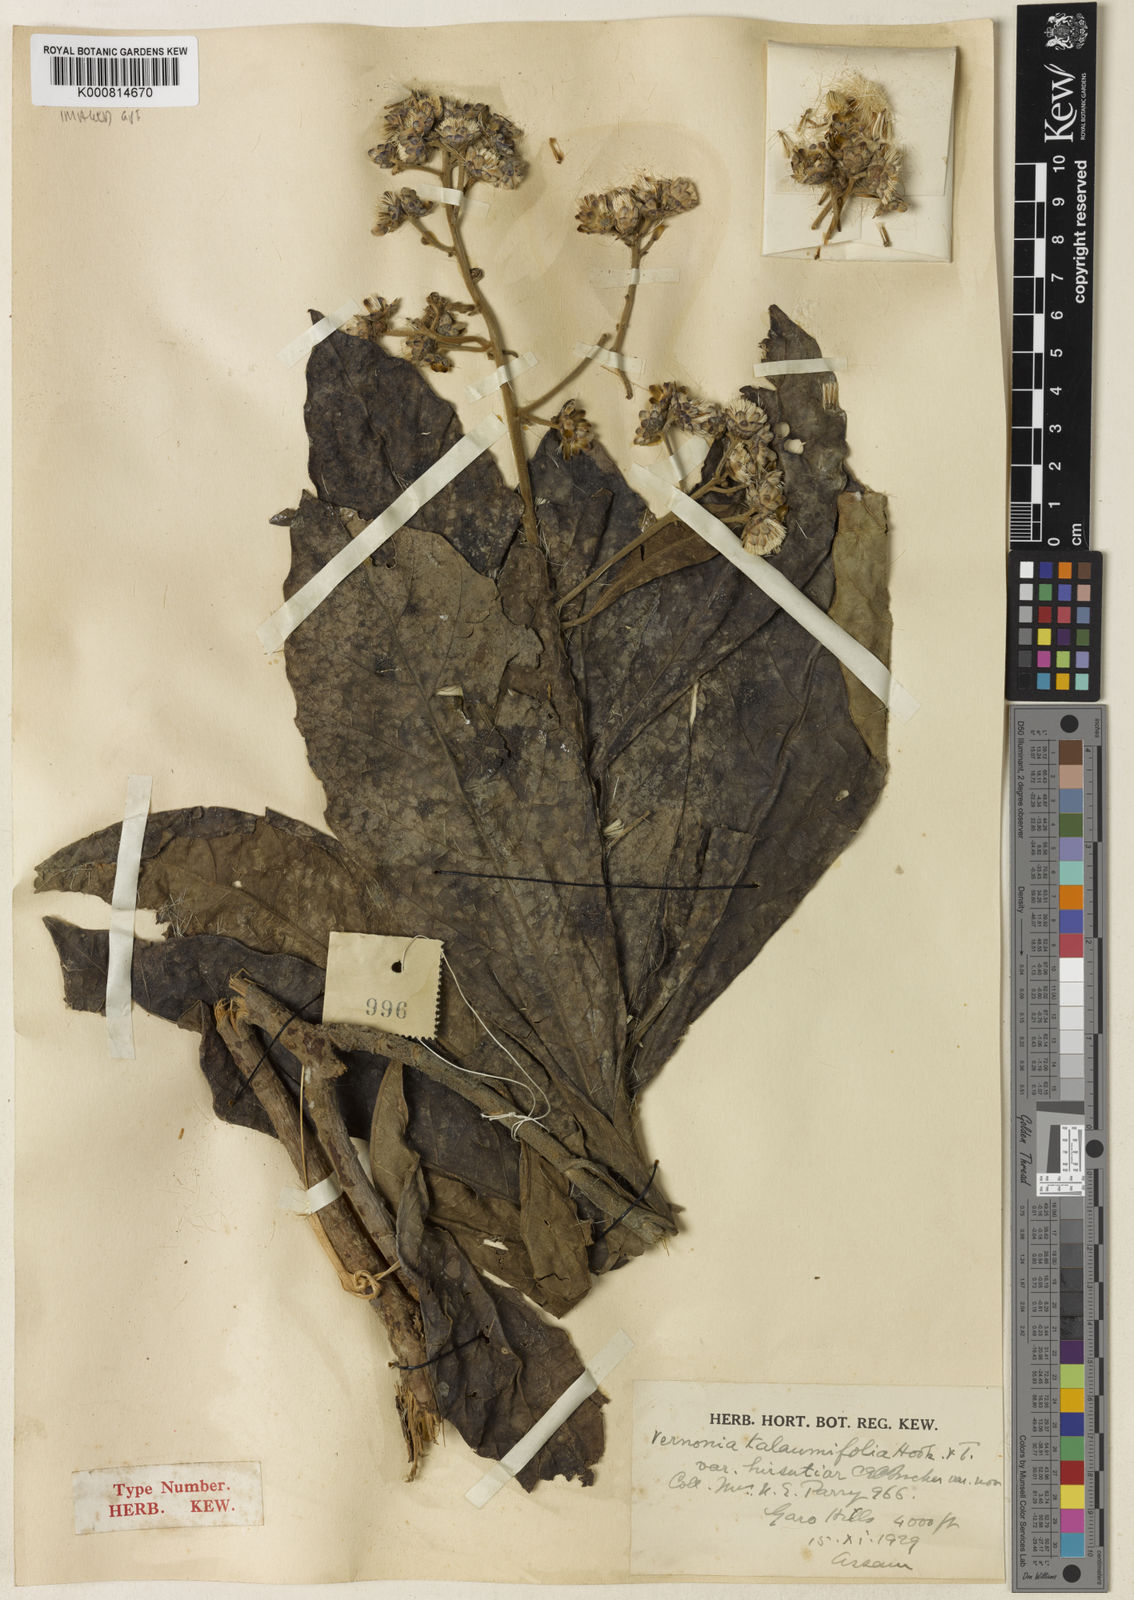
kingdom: Plantae
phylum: Tracheophyta
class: Magnoliopsida
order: Asterales
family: Asteraceae
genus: Monosis
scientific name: Monosis talaumifolia
